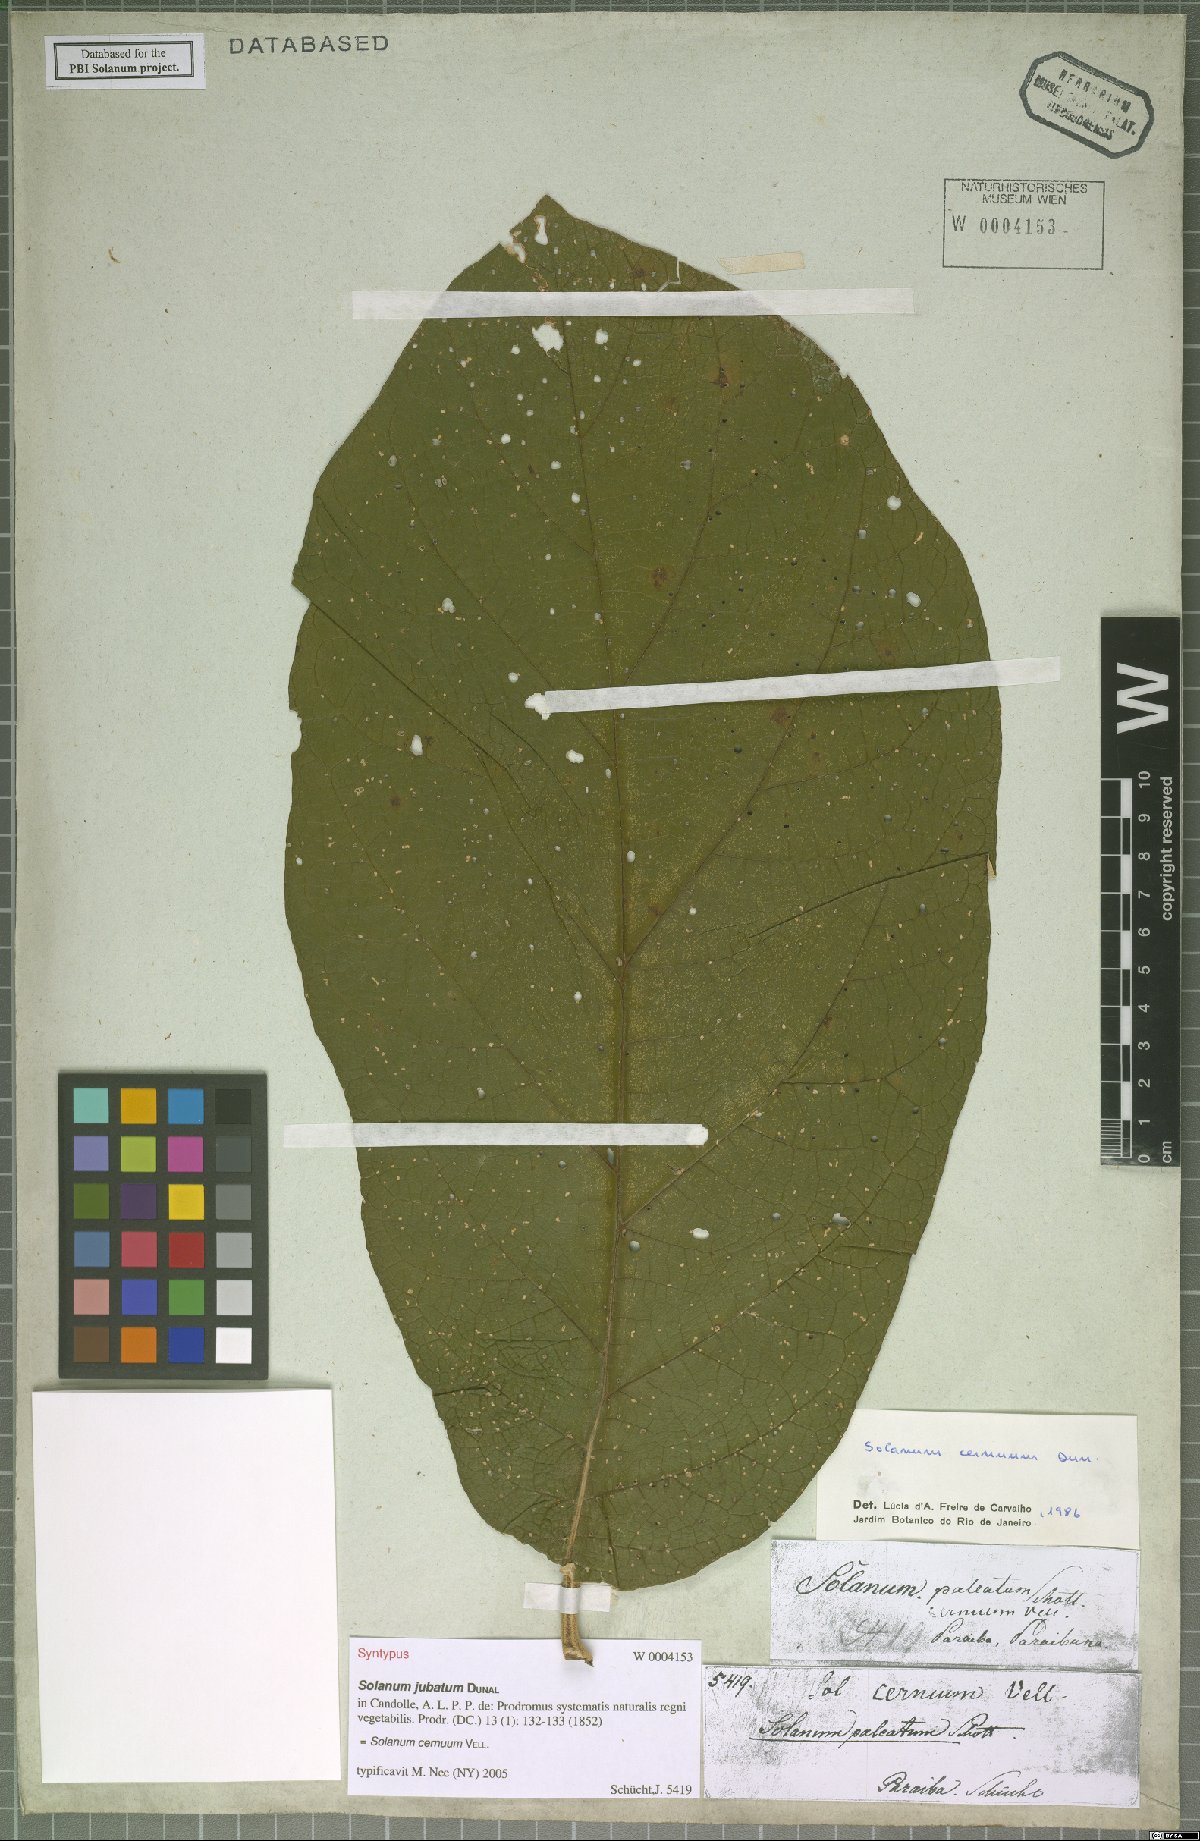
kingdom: Plantae
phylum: Tracheophyta
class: Magnoliopsida
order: Solanales
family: Solanaceae
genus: Solanum
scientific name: Solanum cernuum
